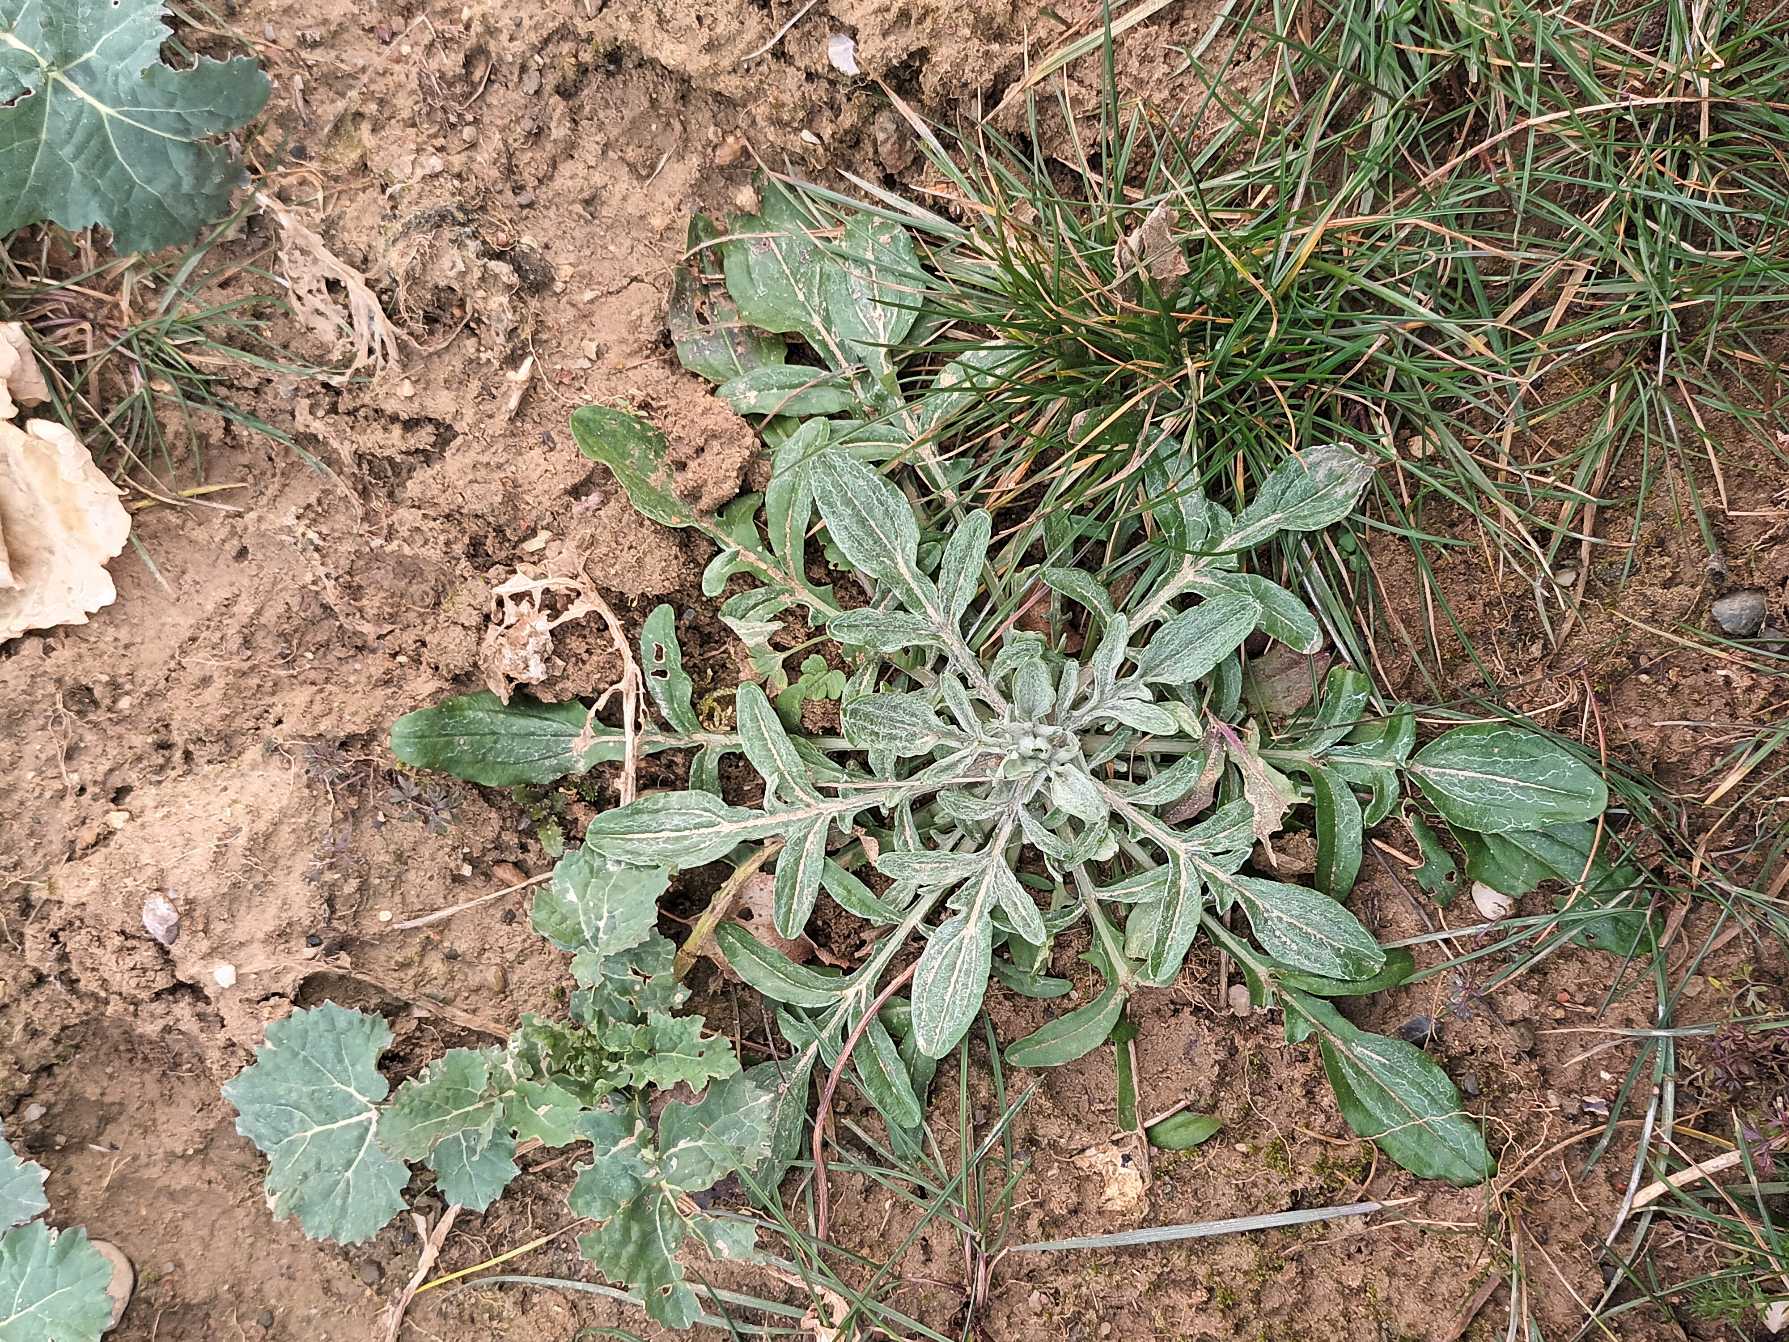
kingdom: Plantae
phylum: Tracheophyta
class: Magnoliopsida
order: Asterales
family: Asteraceae
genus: Centaurea
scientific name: Centaurea cyanus
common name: Kornblomst
